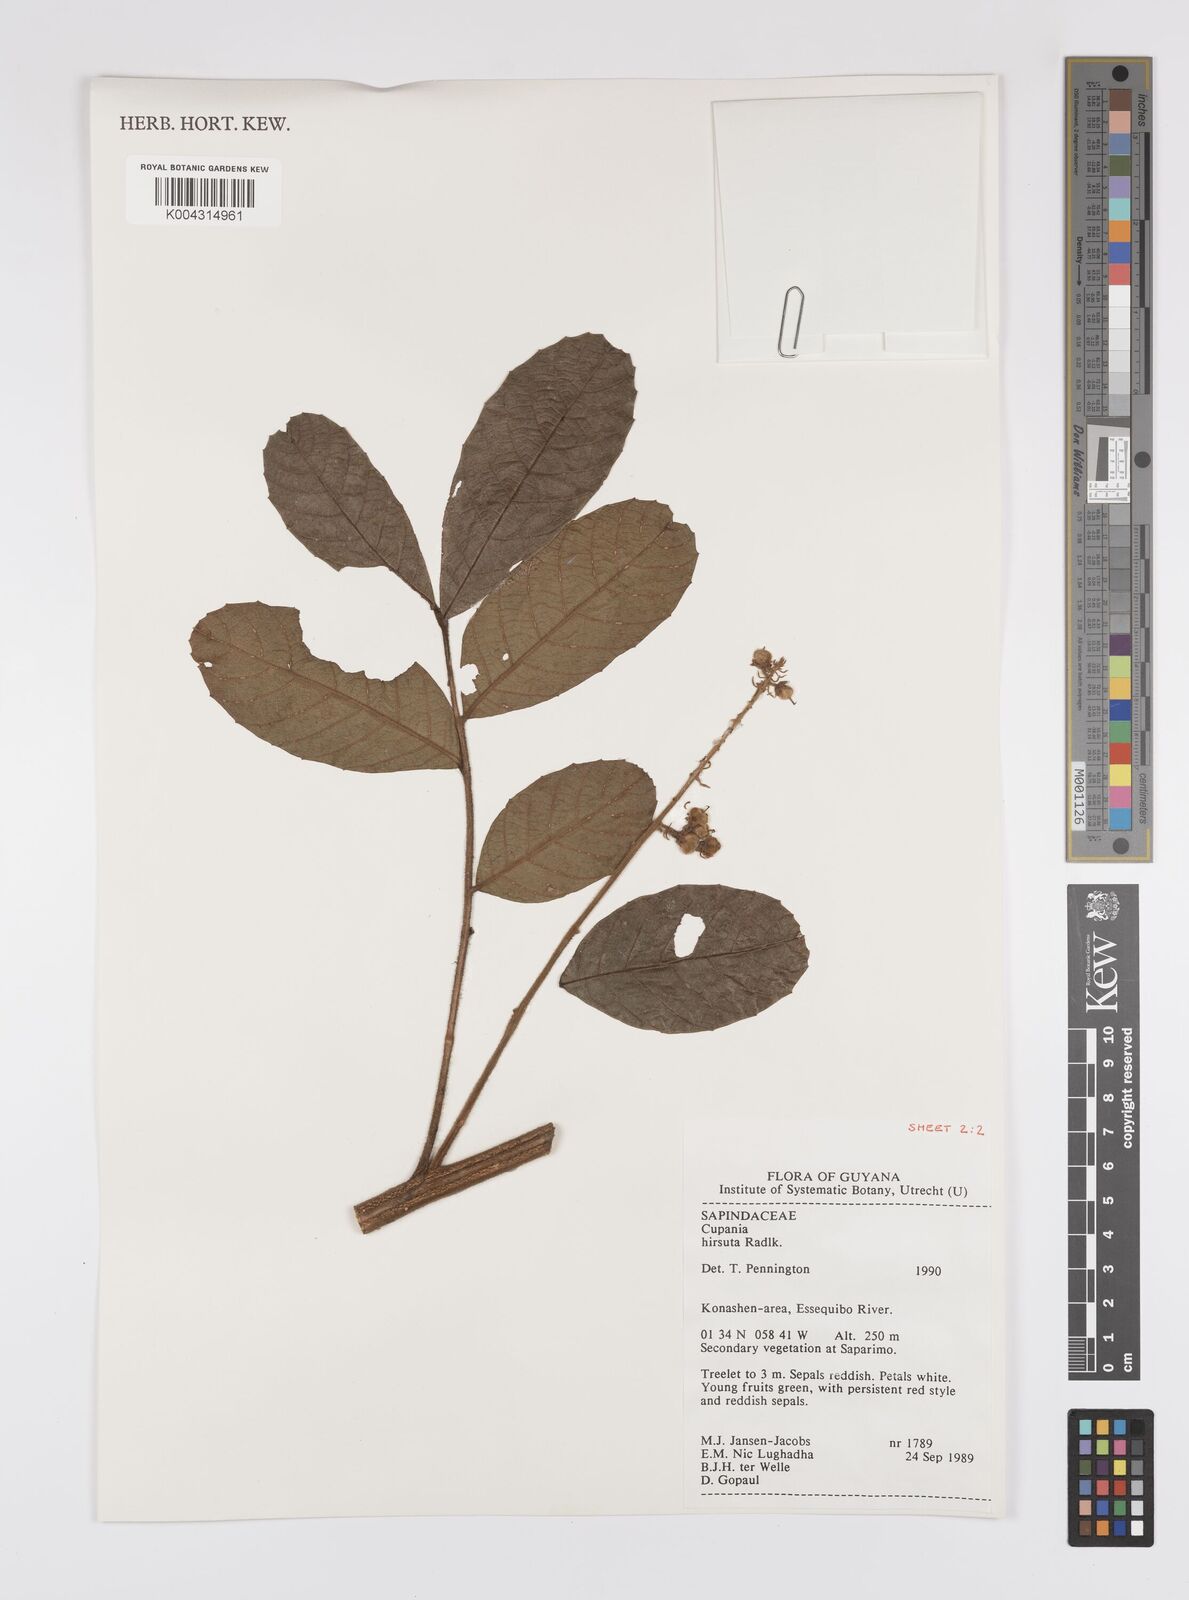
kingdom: Plantae
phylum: Tracheophyta
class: Magnoliopsida
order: Sapindales
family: Sapindaceae
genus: Cupania
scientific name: Cupania
